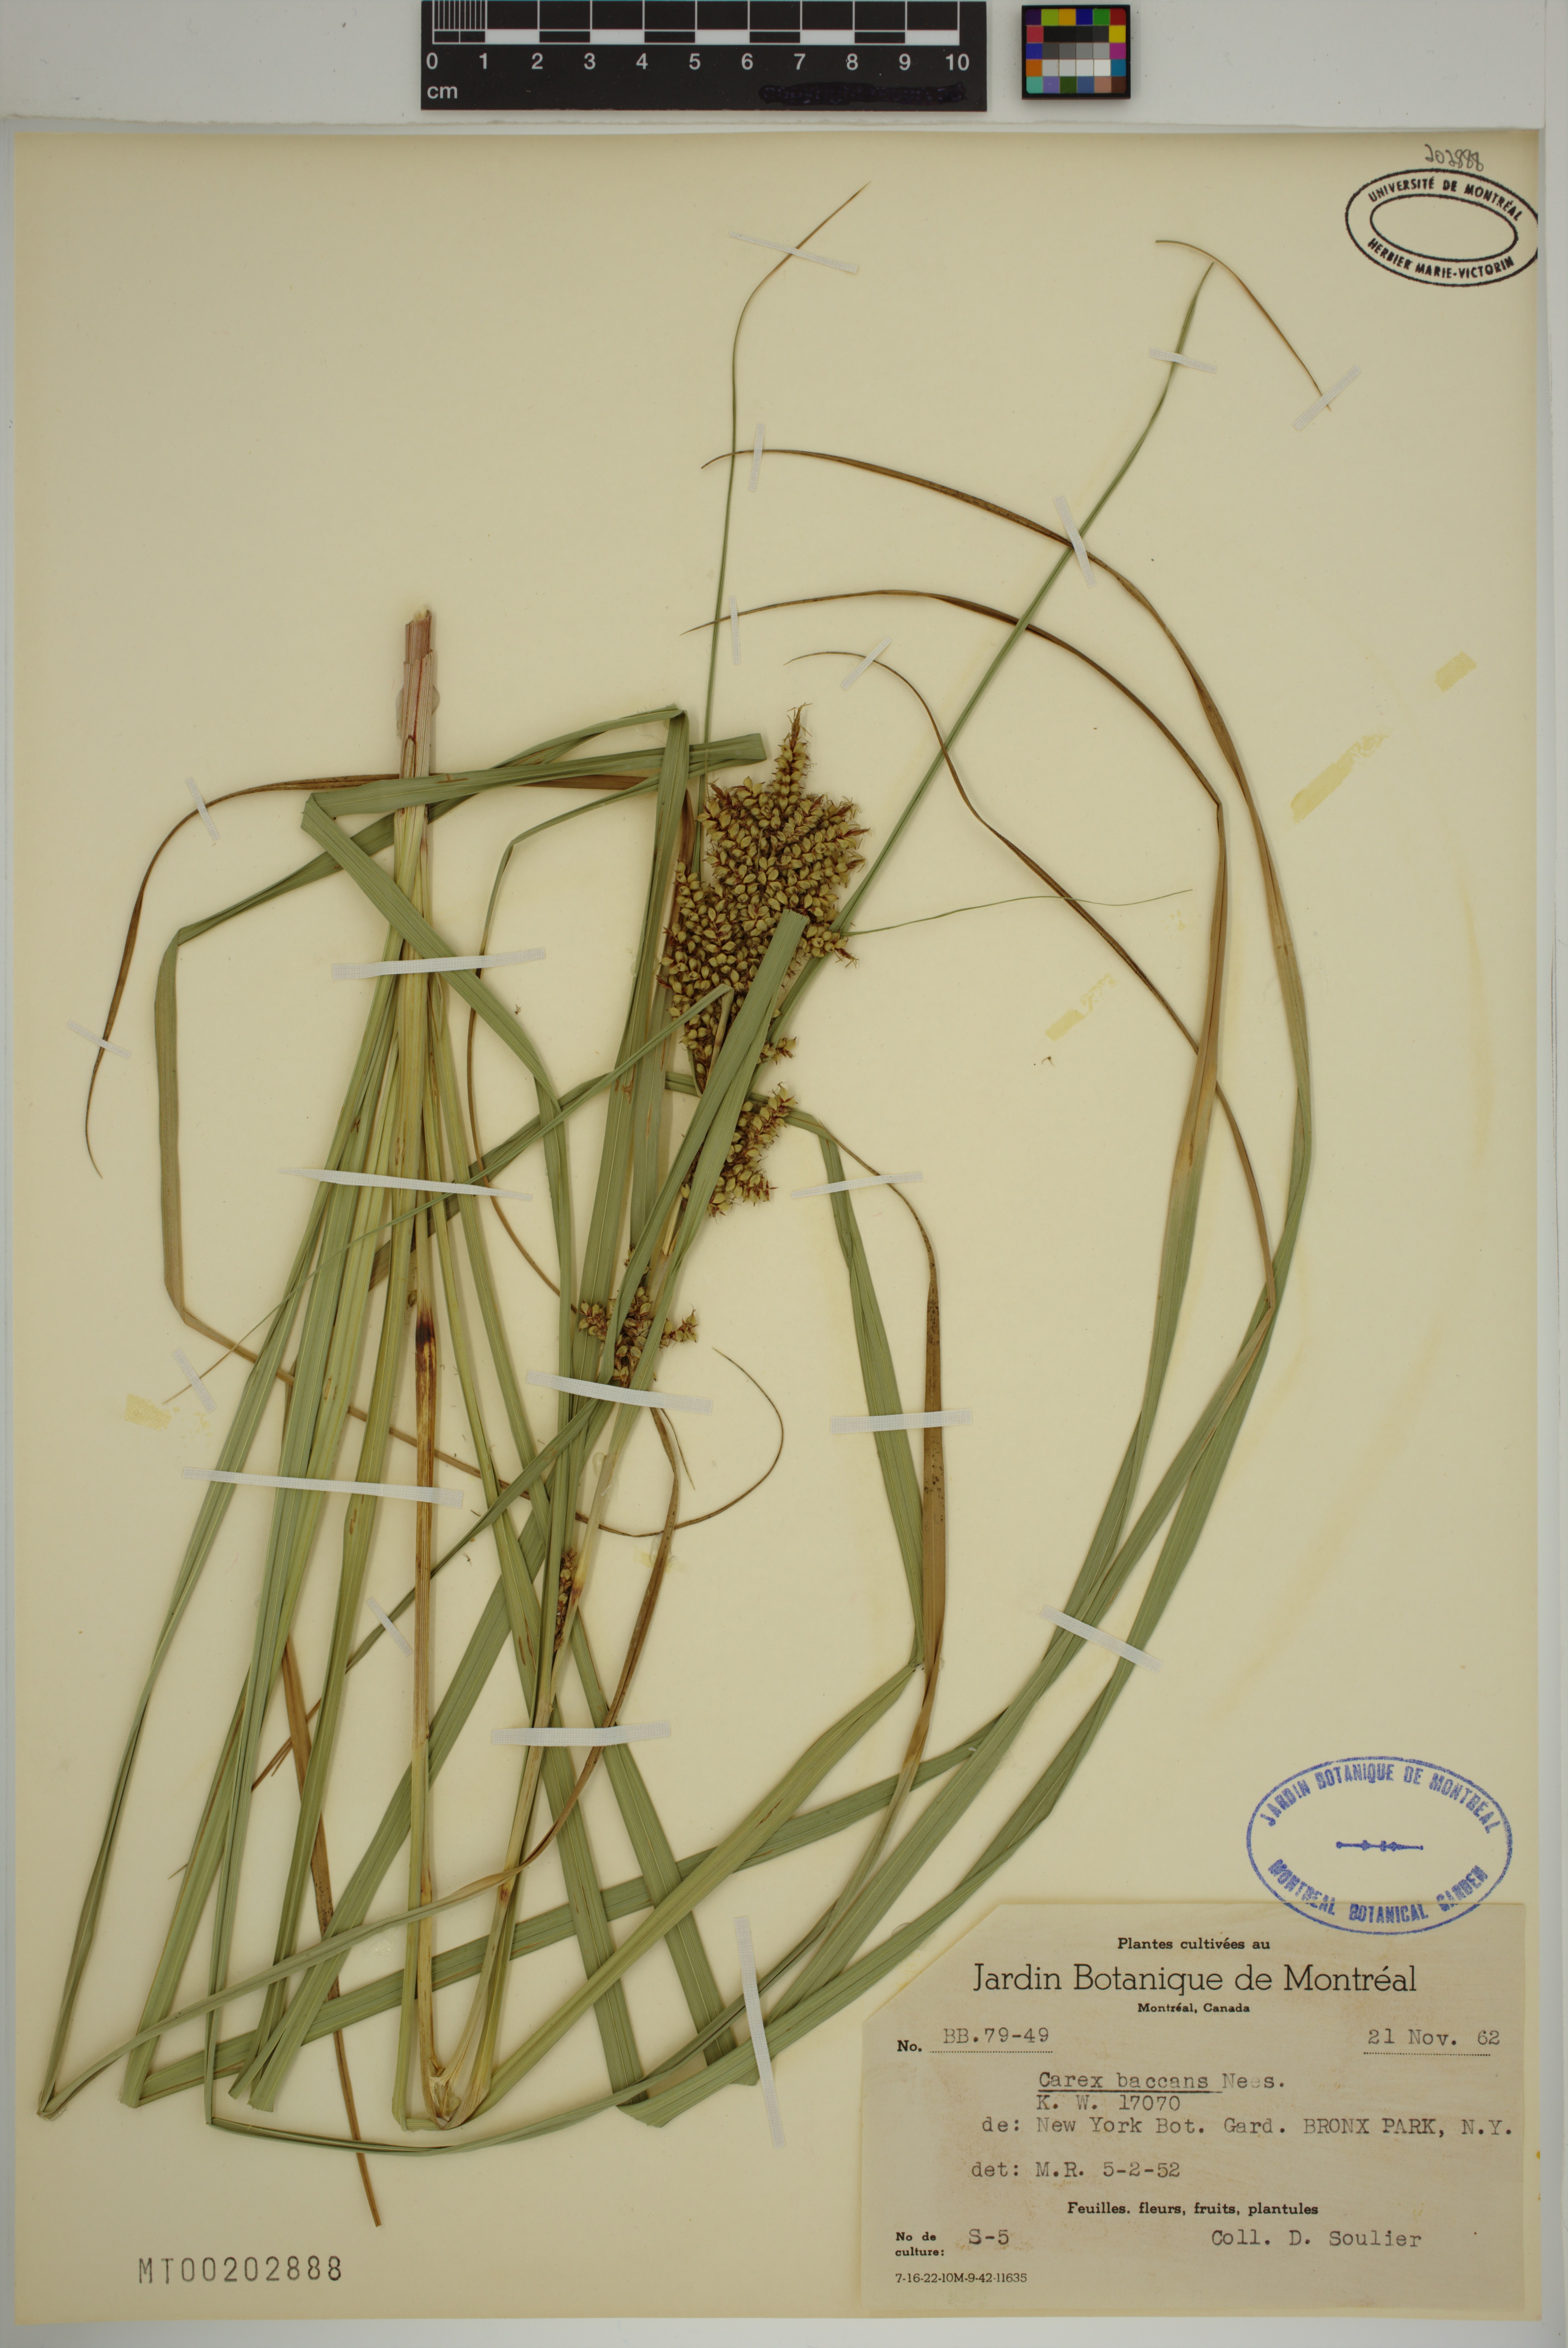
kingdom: Plantae
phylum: Tracheophyta
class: Liliopsida
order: Poales
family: Cyperaceae
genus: Carex
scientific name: Carex baccans
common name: Crimson seeded sedge
